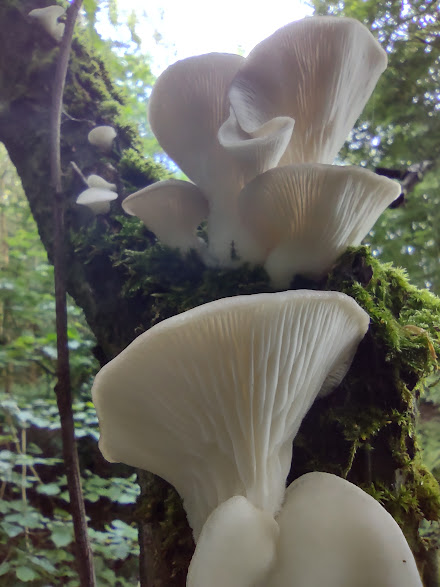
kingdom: Fungi
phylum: Basidiomycota
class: Agaricomycetes
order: Agaricales
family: Pleurotaceae
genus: Pleurotus
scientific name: Pleurotus pulmonarius
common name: sommer-østershat
